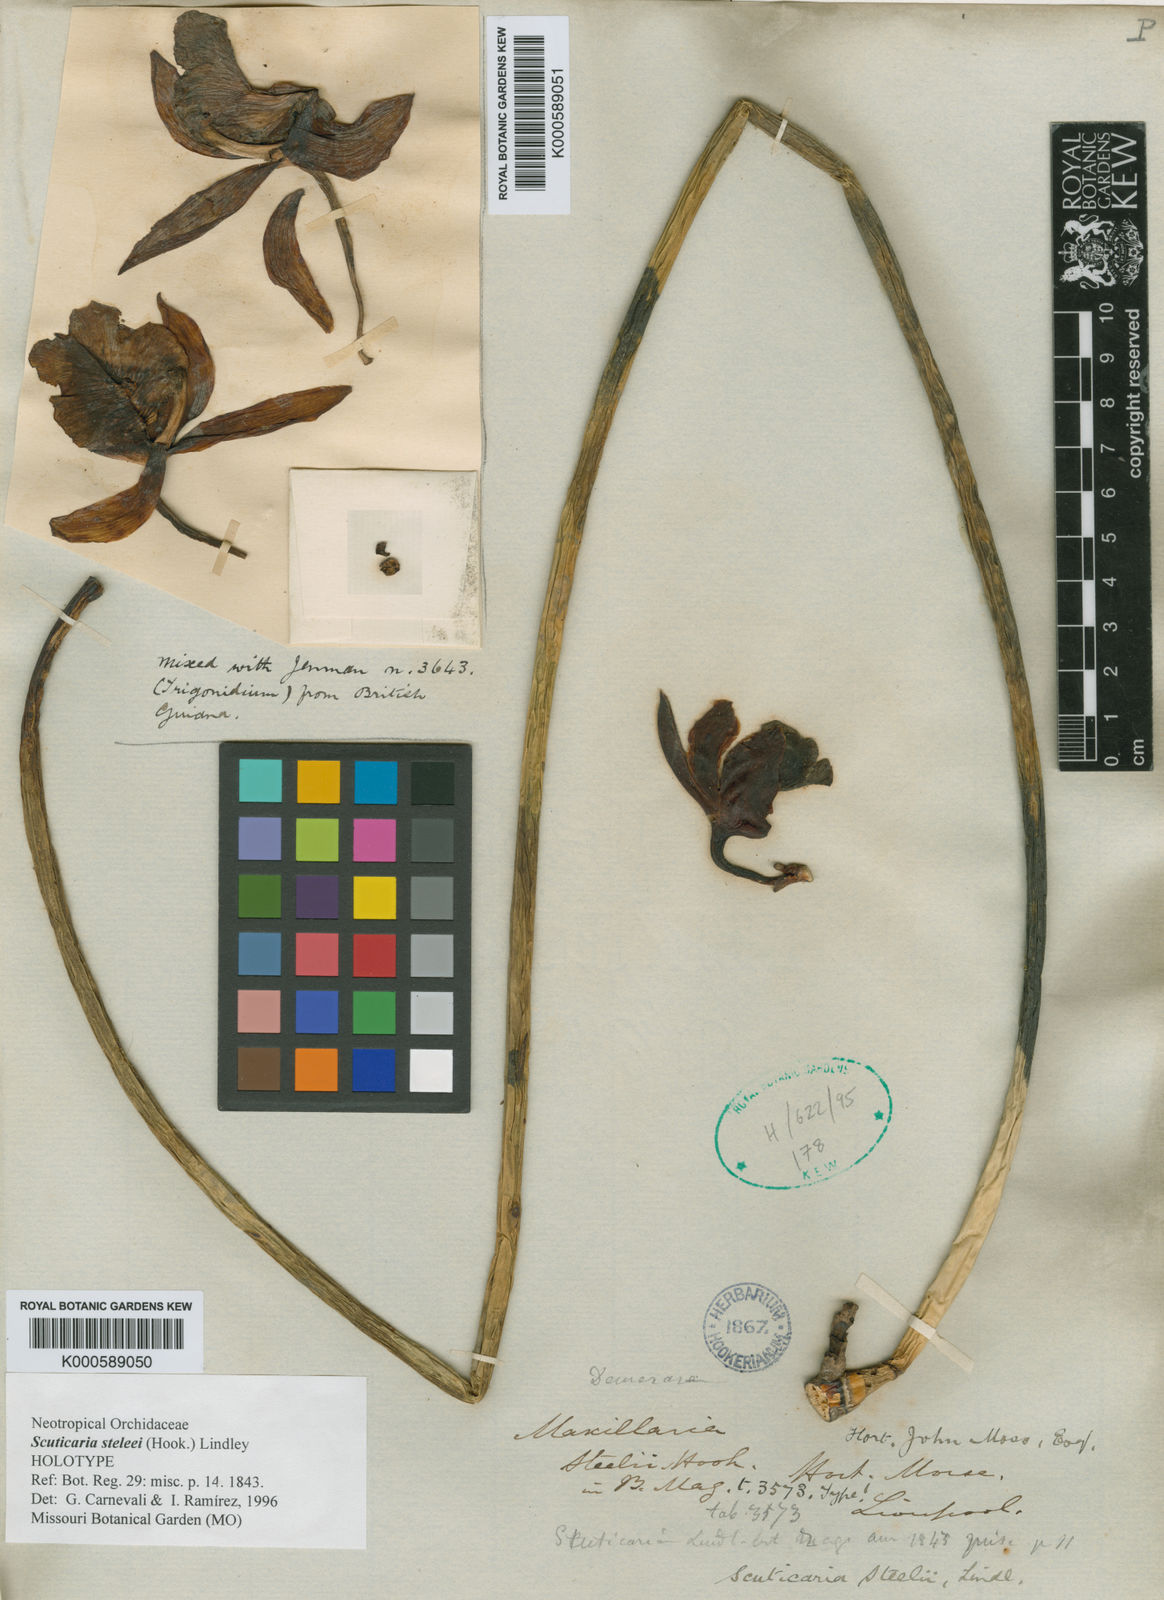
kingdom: Plantae
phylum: Tracheophyta
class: Liliopsida
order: Asparagales
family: Orchidaceae
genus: Scuticaria
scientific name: Scuticaria steelei
